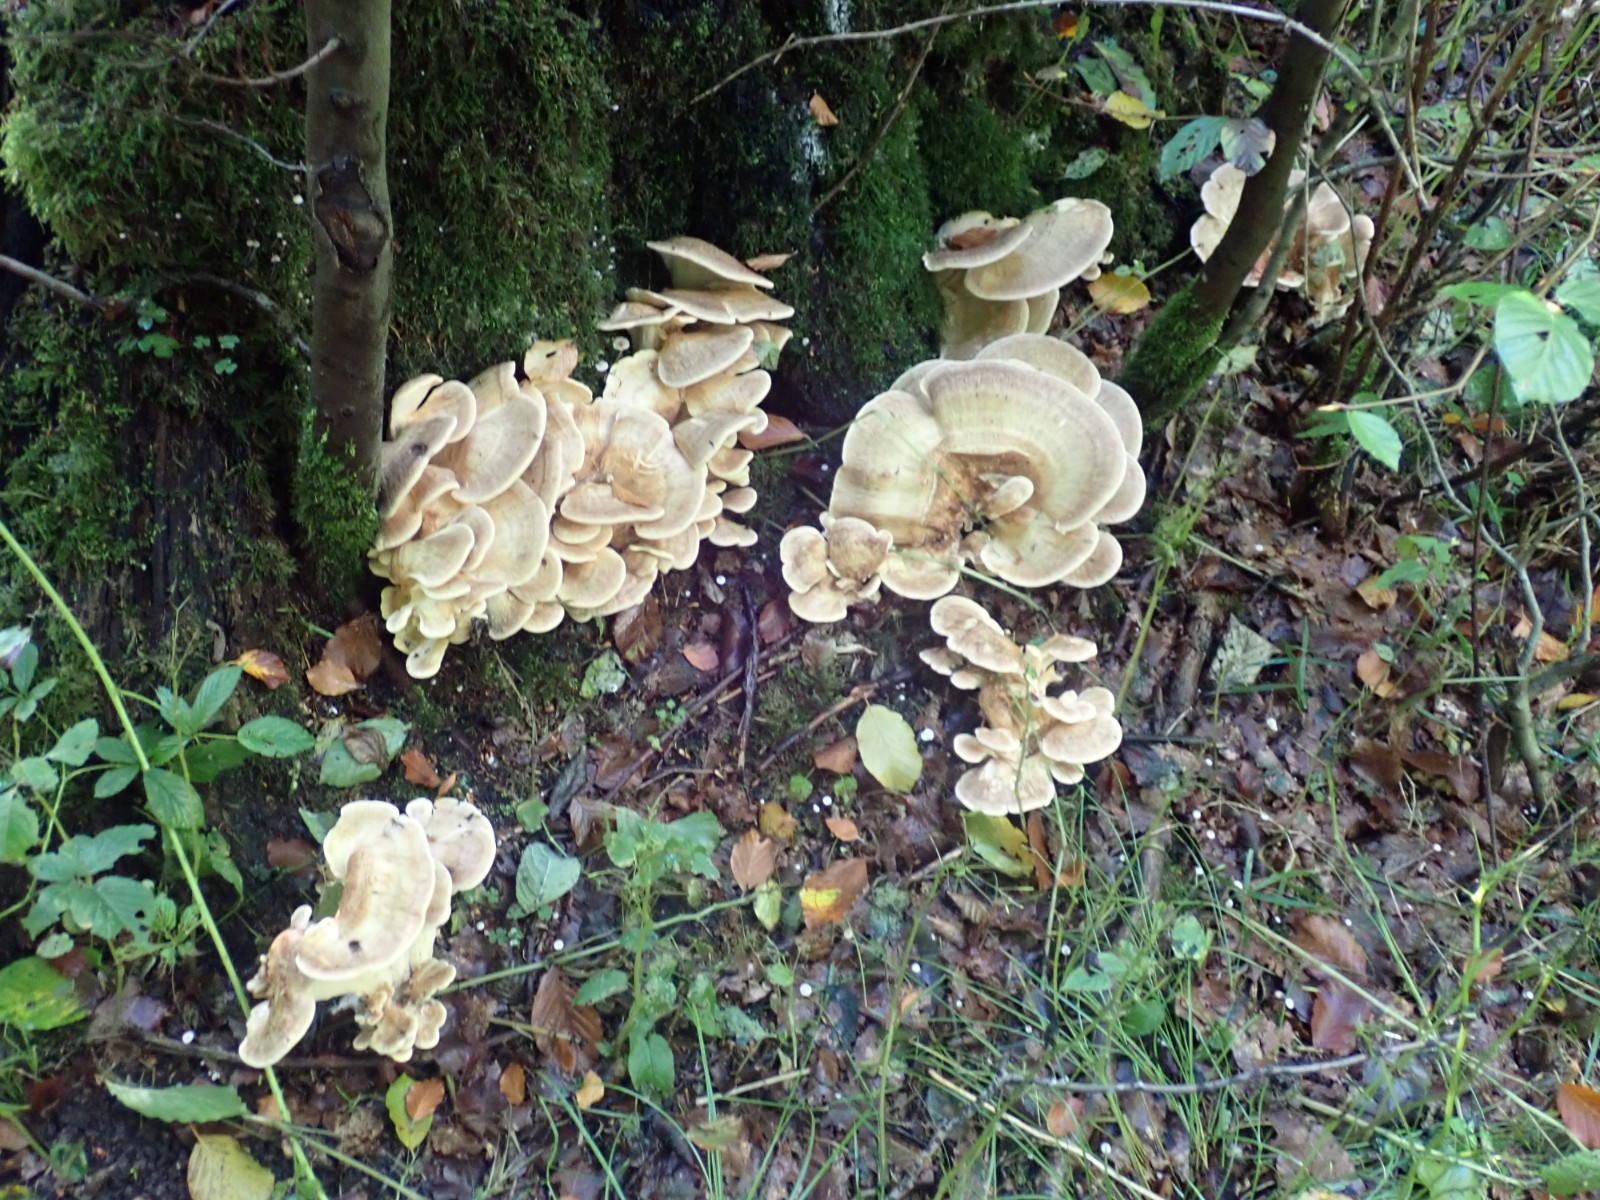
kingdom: Fungi
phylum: Basidiomycota
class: Agaricomycetes
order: Polyporales
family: Meripilaceae
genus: Meripilus
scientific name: Meripilus giganteus
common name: kæmpeporesvamp
